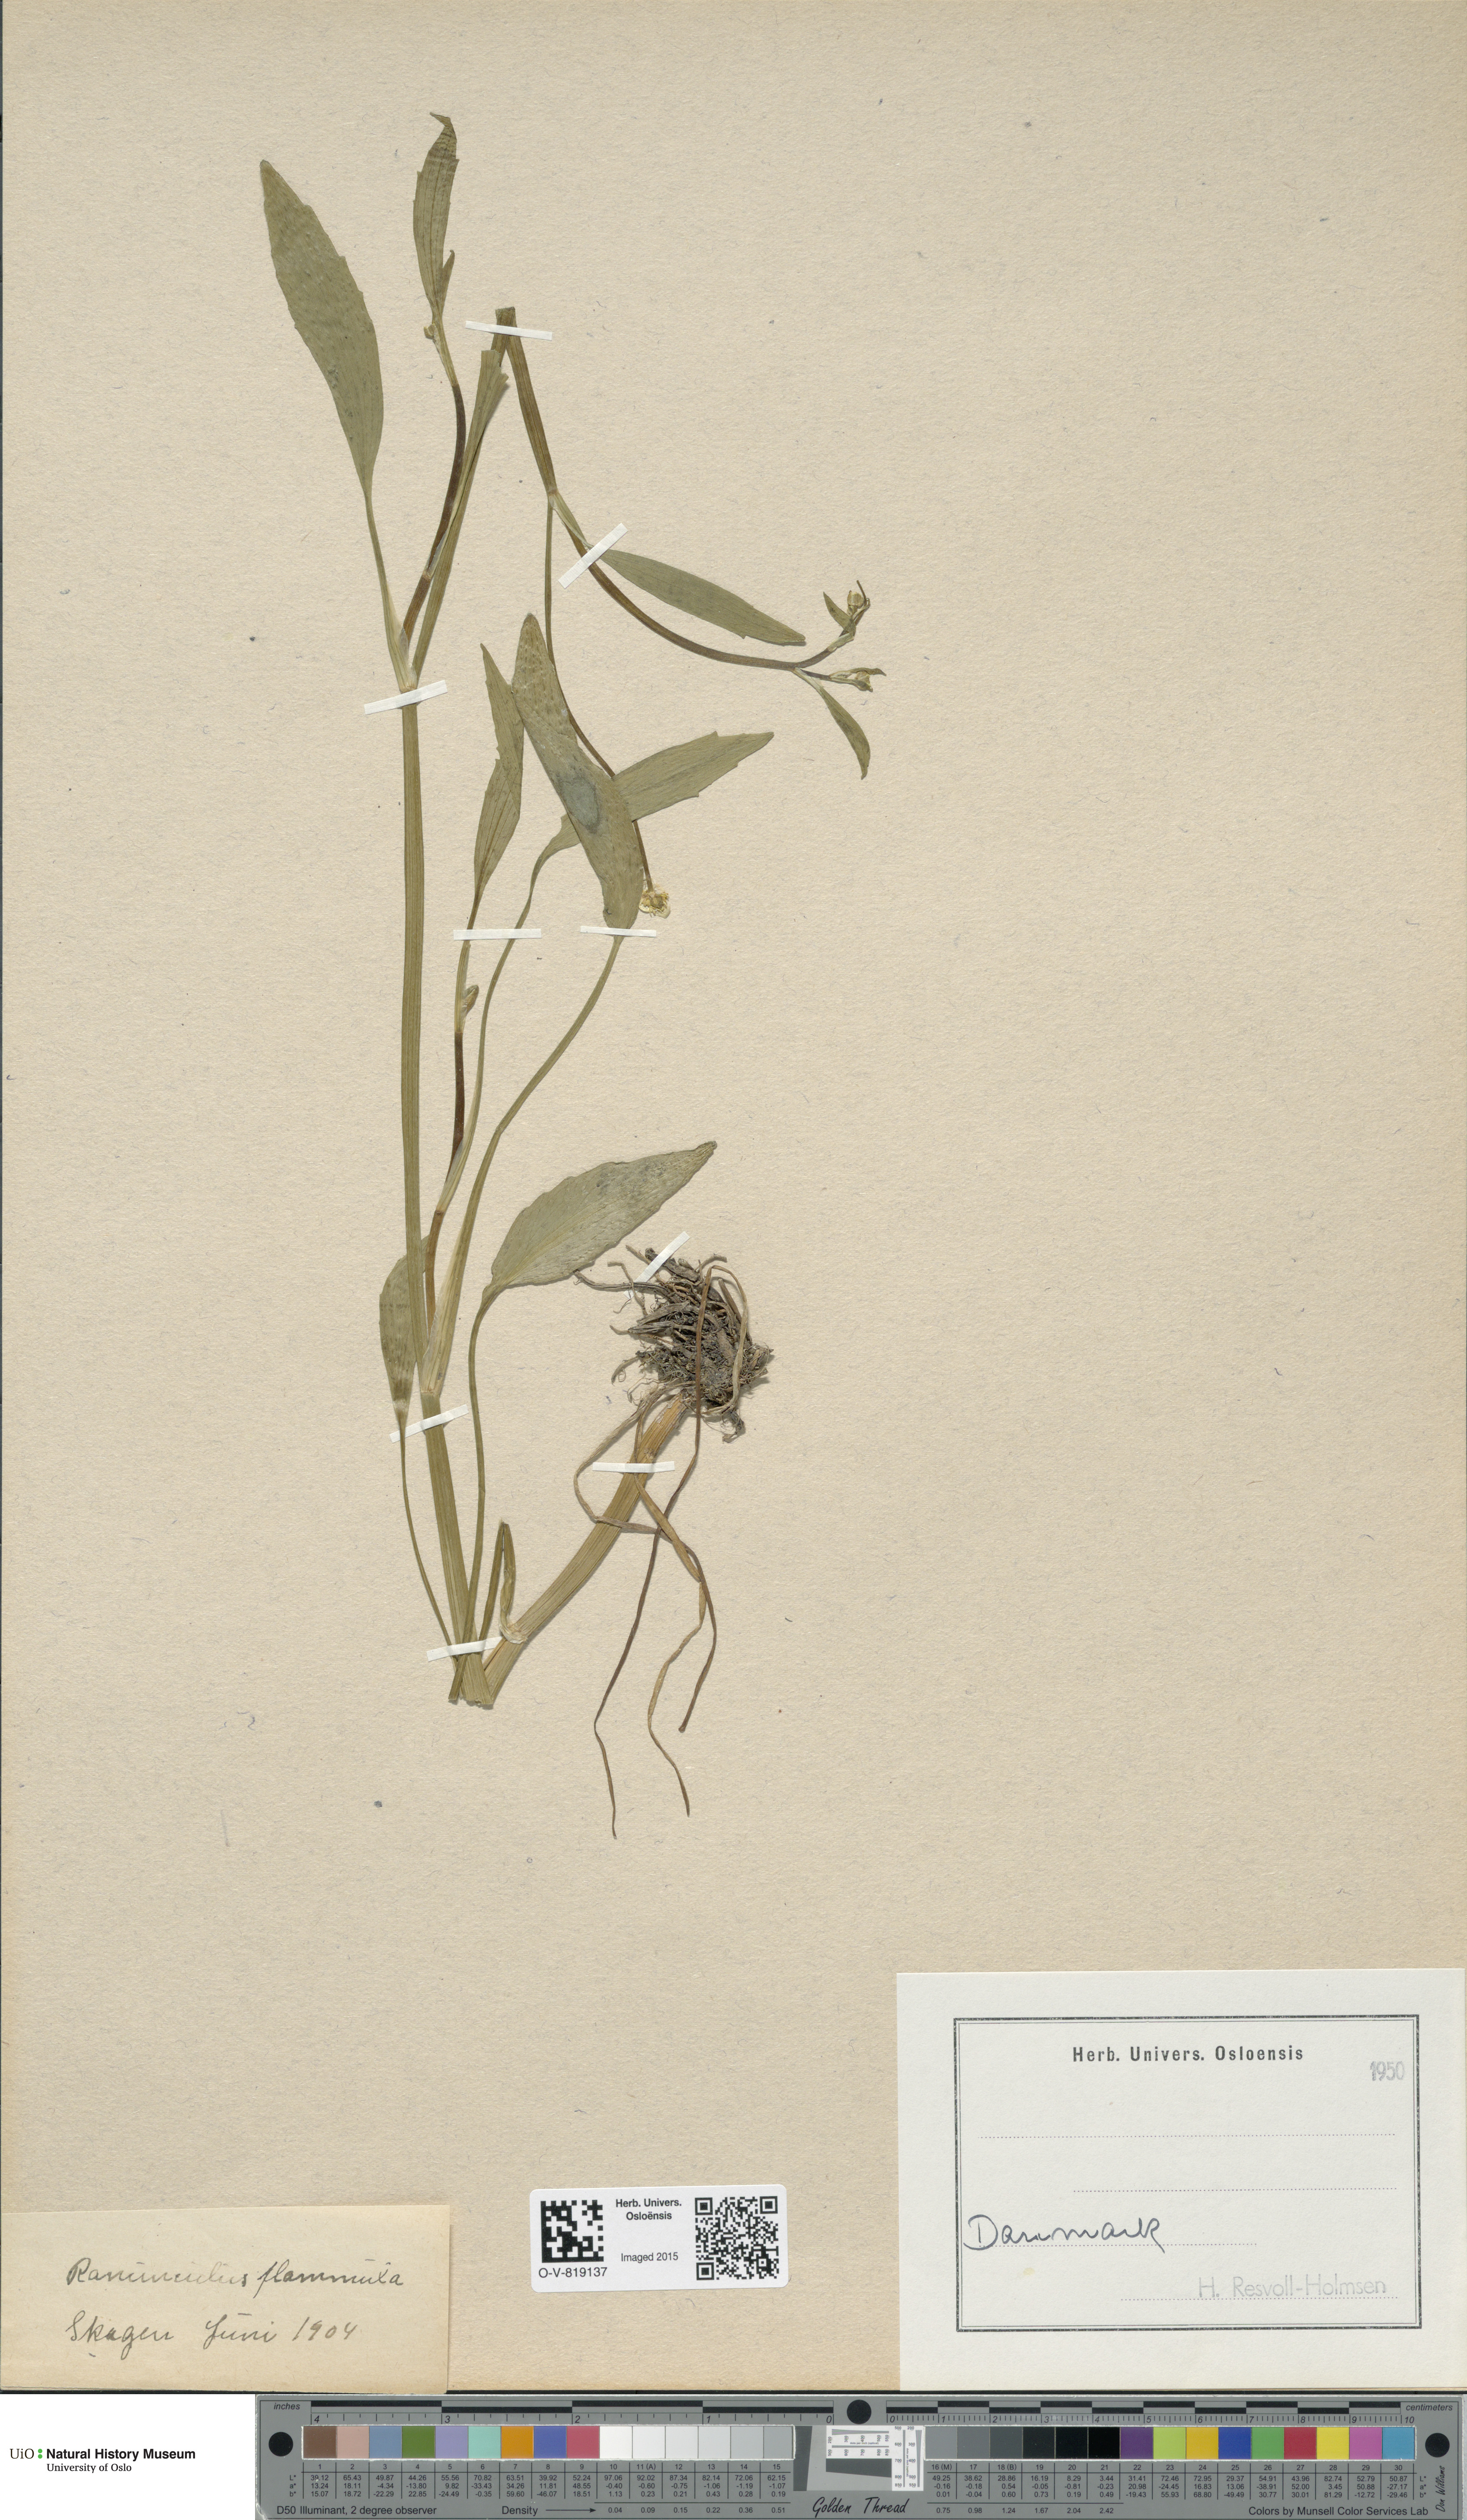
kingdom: Plantae
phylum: Tracheophyta
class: Magnoliopsida
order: Ranunculales
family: Ranunculaceae
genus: Ranunculus
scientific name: Ranunculus flammula
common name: Lesser spearwort
